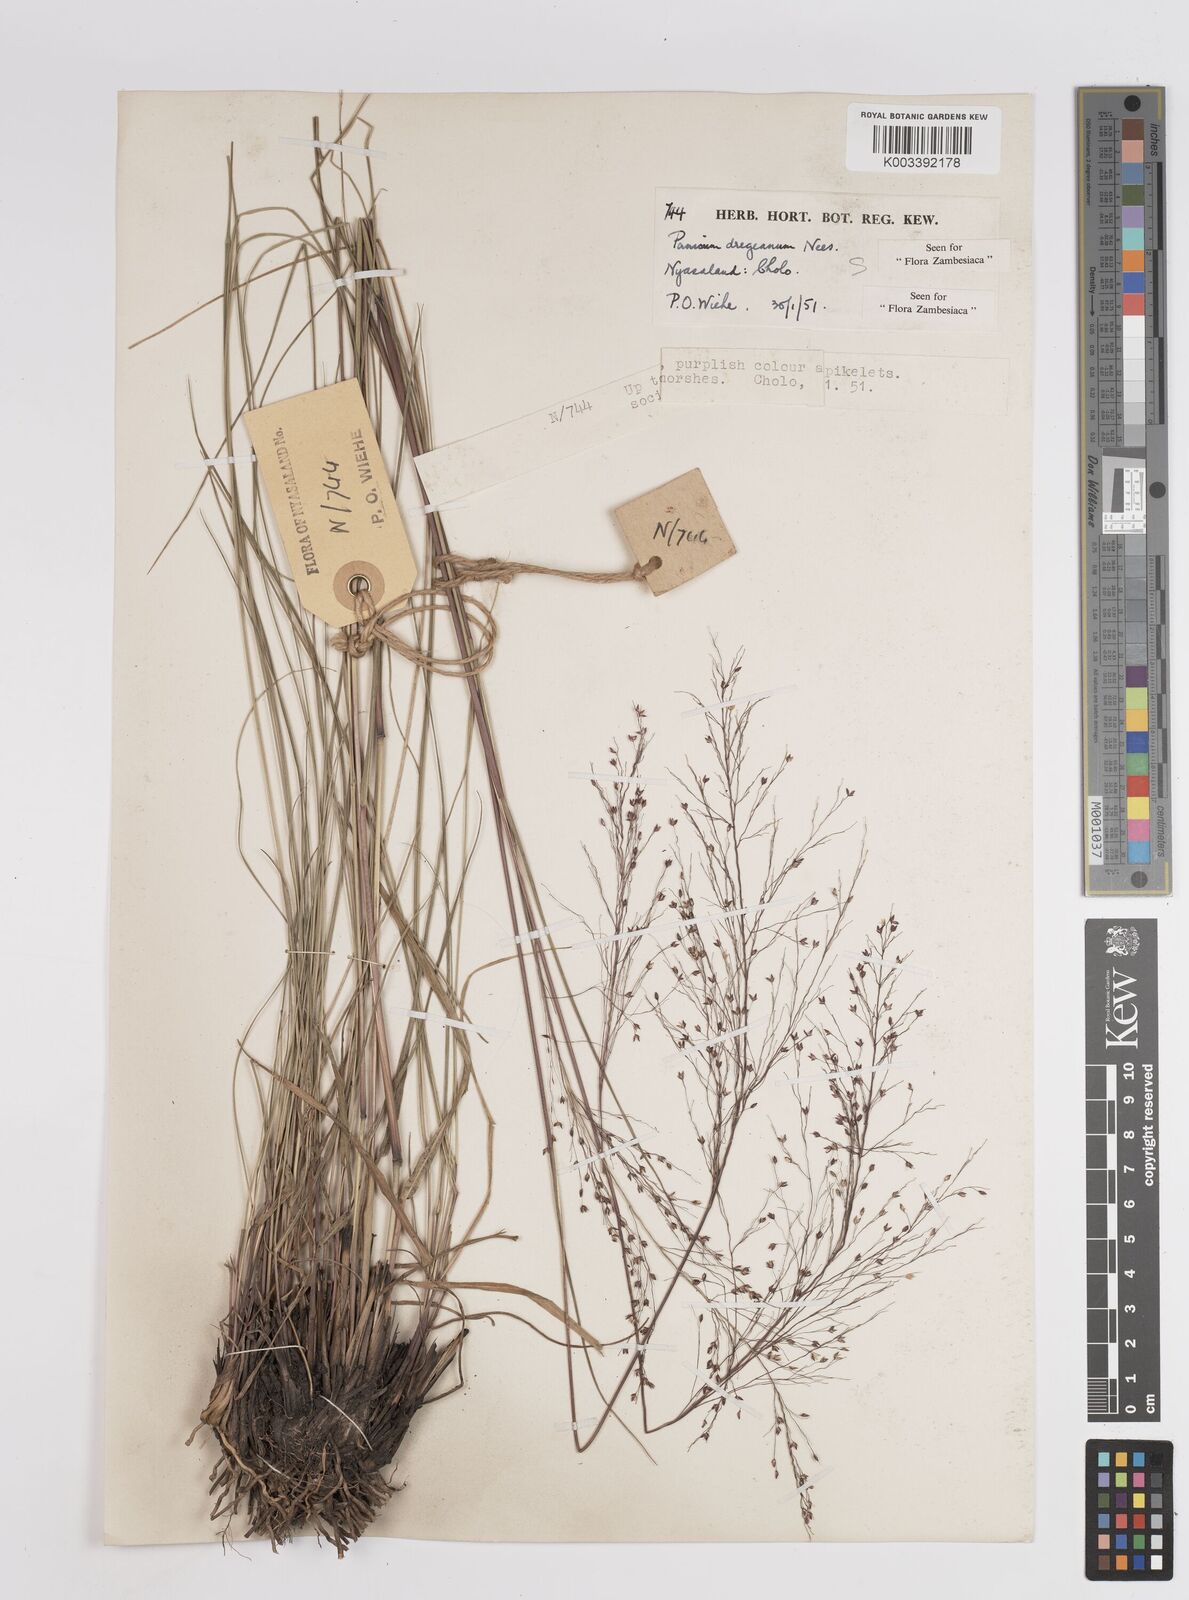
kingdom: Plantae
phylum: Tracheophyta
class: Liliopsida
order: Poales
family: Poaceae
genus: Panicum
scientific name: Panicum dregeanum
